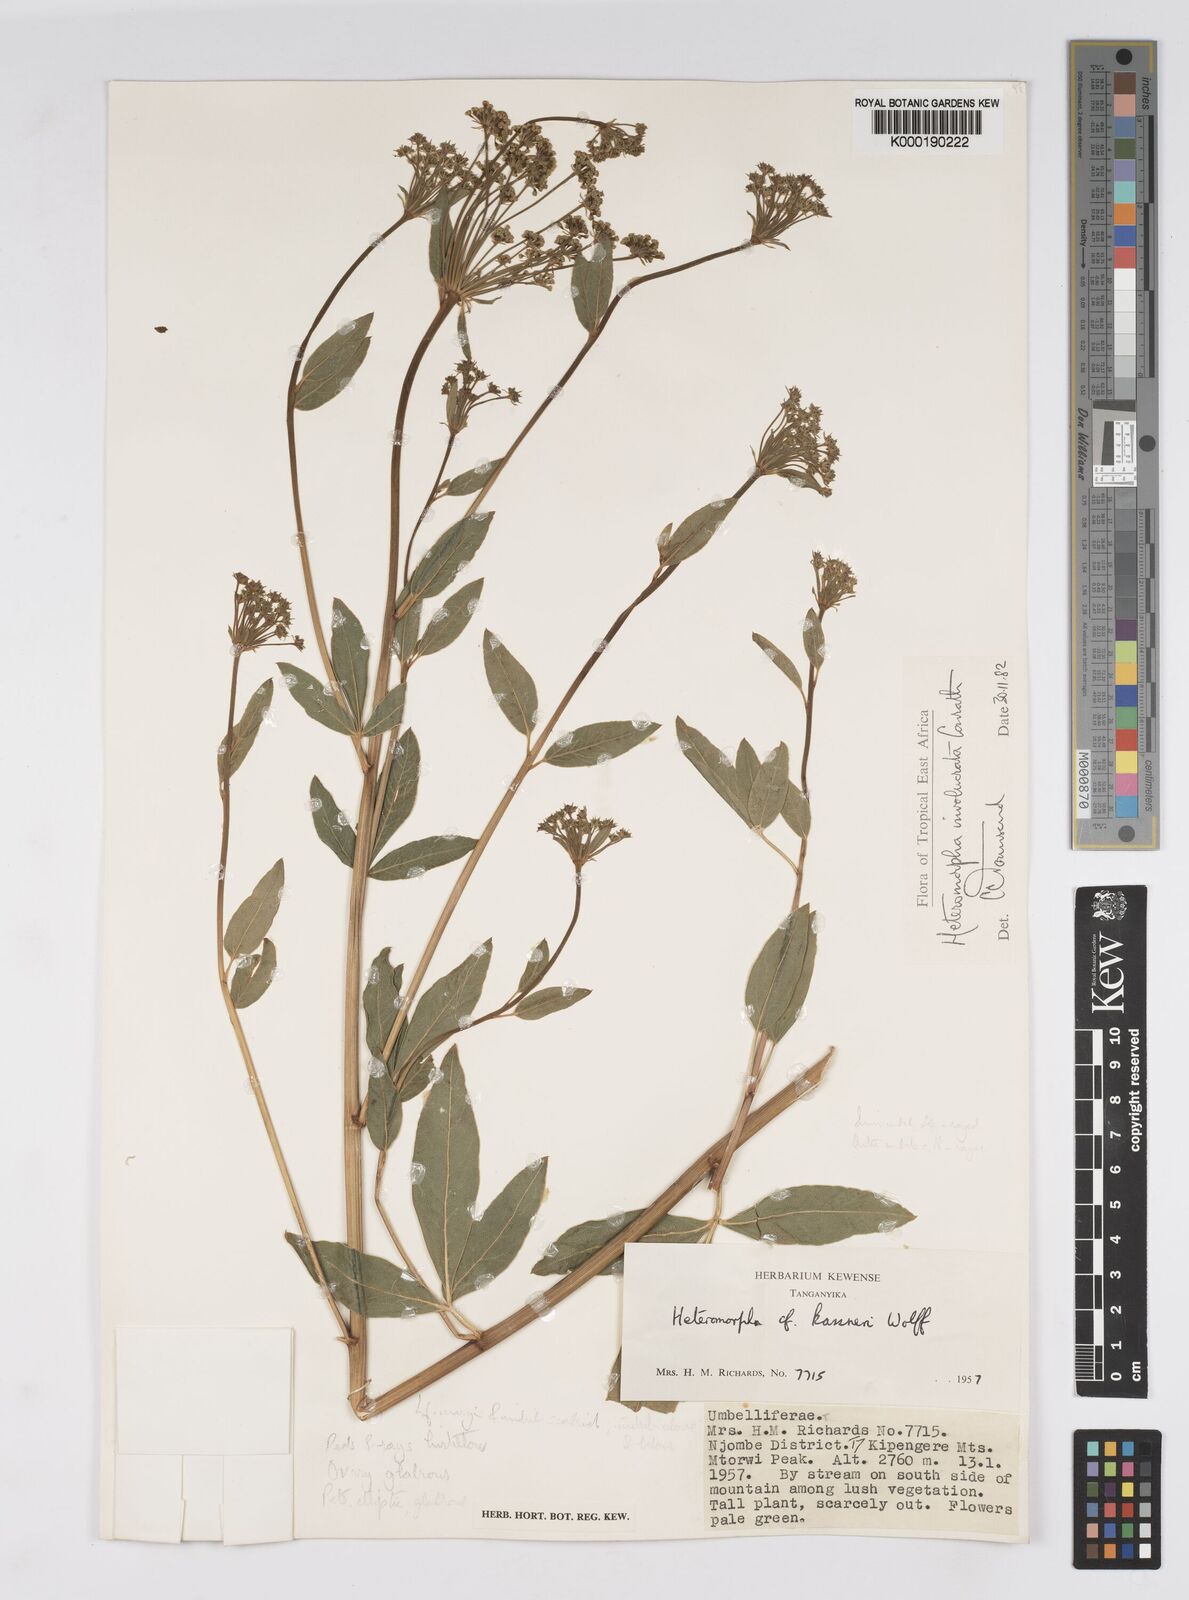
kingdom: Plantae
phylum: Tracheophyta
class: Magnoliopsida
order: Apiales
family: Apiaceae
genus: Heteromorpha
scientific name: Heteromorpha involucrata
